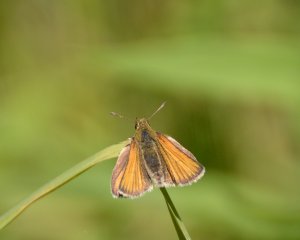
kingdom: Animalia
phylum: Arthropoda
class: Insecta
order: Lepidoptera
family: Hesperiidae
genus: Thymelicus
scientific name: Thymelicus lineola
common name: European Skipper
